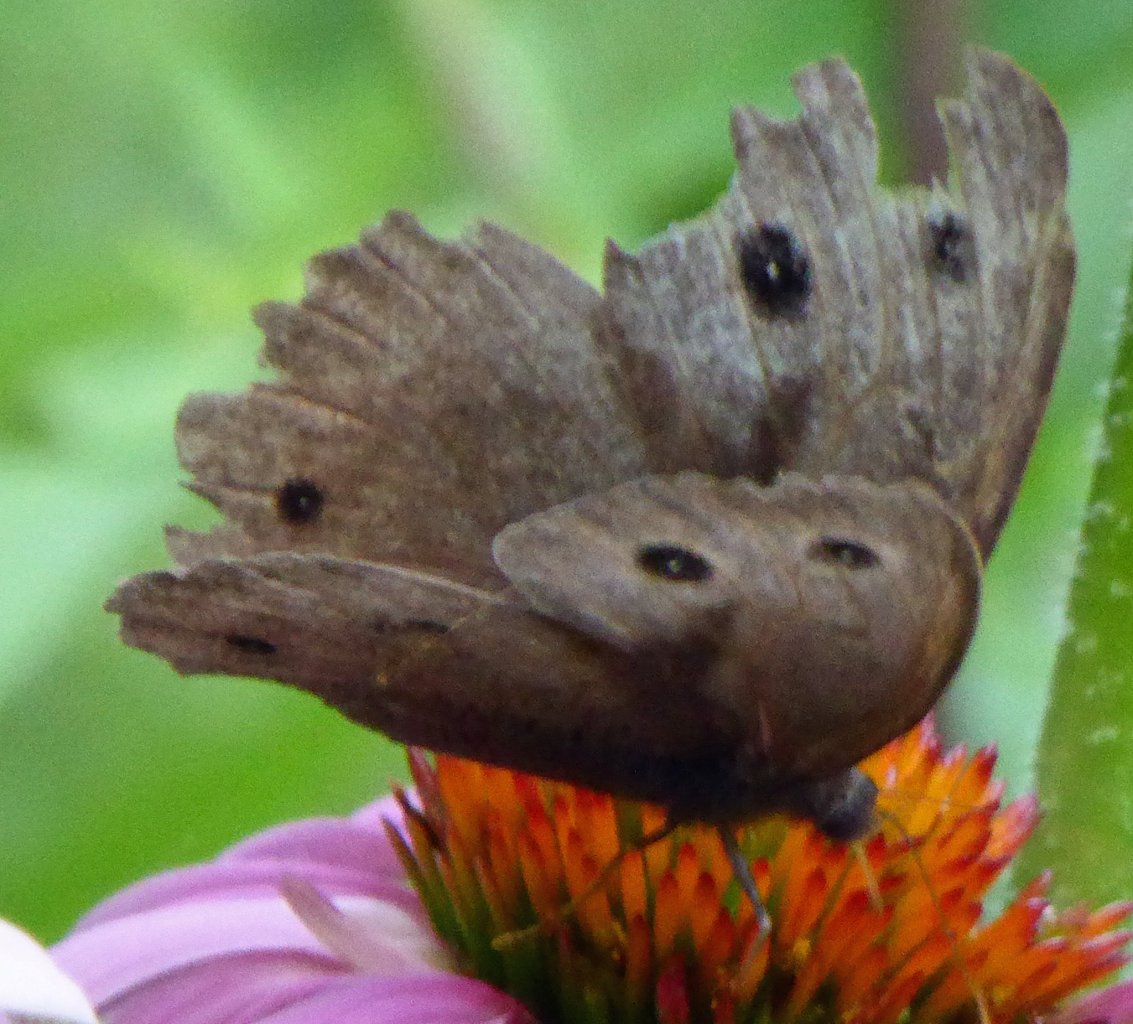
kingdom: Animalia
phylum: Arthropoda
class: Insecta
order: Lepidoptera
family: Nymphalidae
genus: Cercyonis
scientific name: Cercyonis pegala
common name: Common Wood-Nymph
